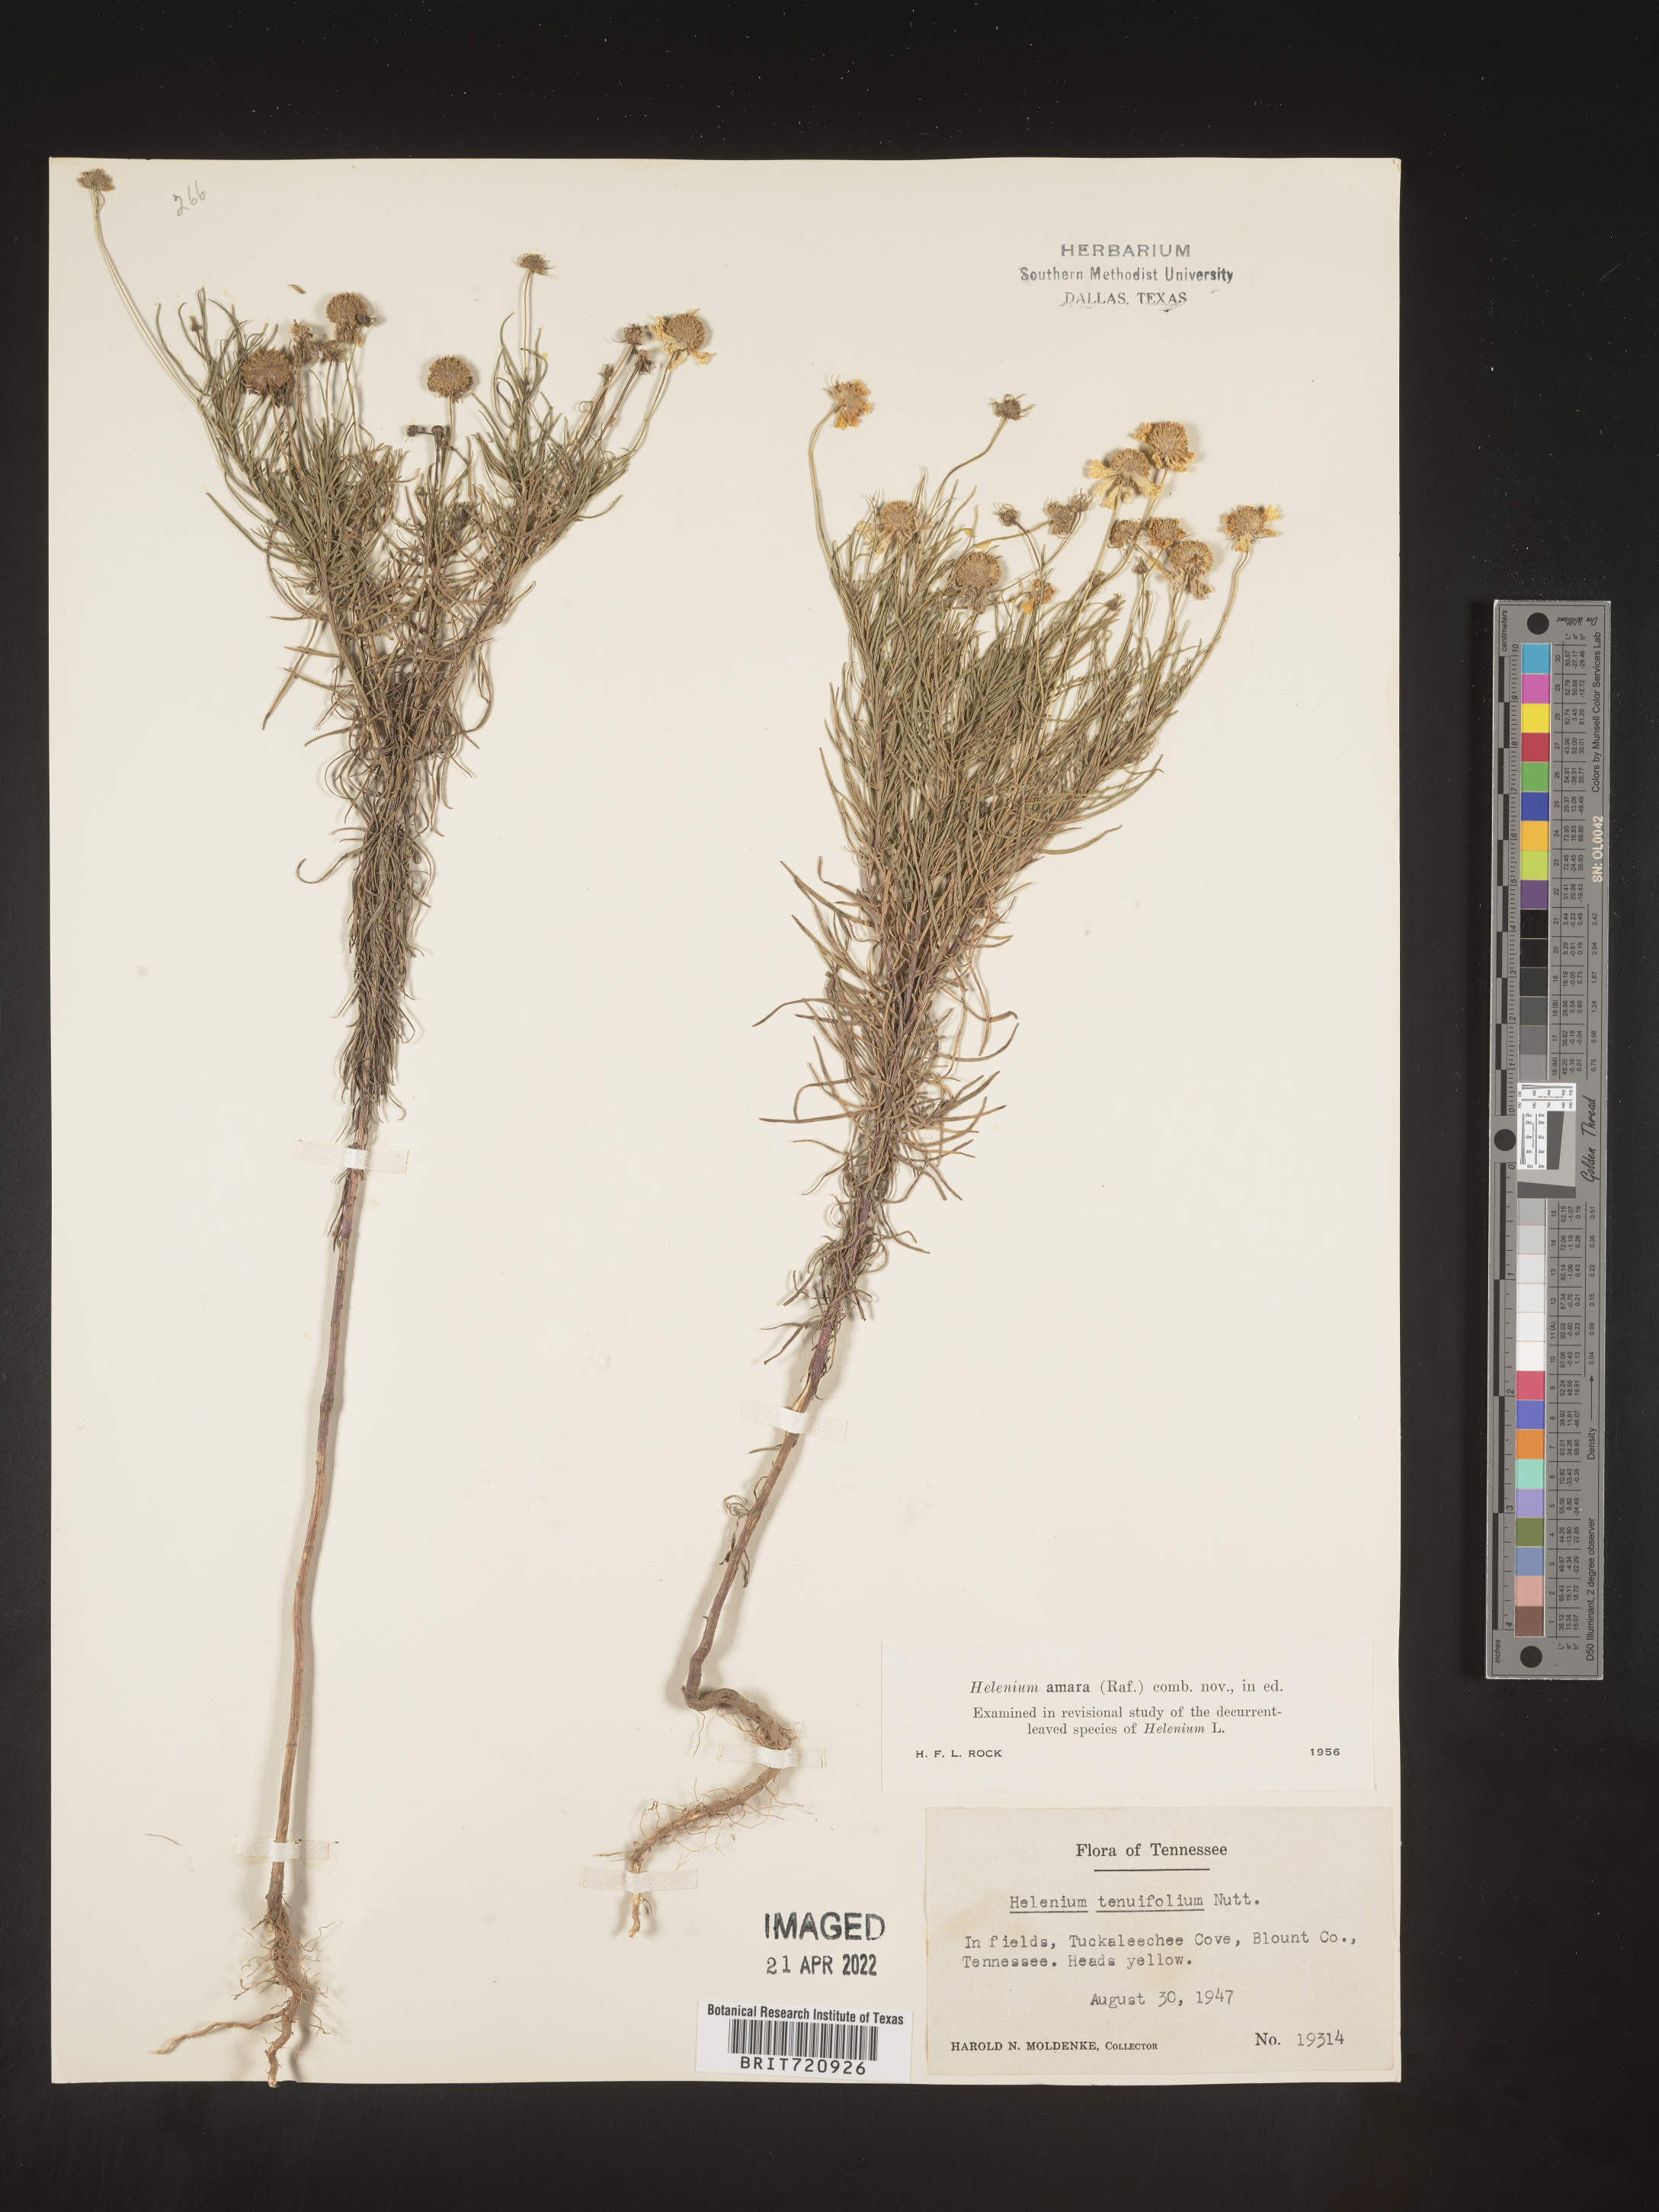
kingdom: Plantae
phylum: Tracheophyta
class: Magnoliopsida
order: Asterales
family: Asteraceae
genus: Helenium
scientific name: Helenium amarum
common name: Bitter sneezeweed
